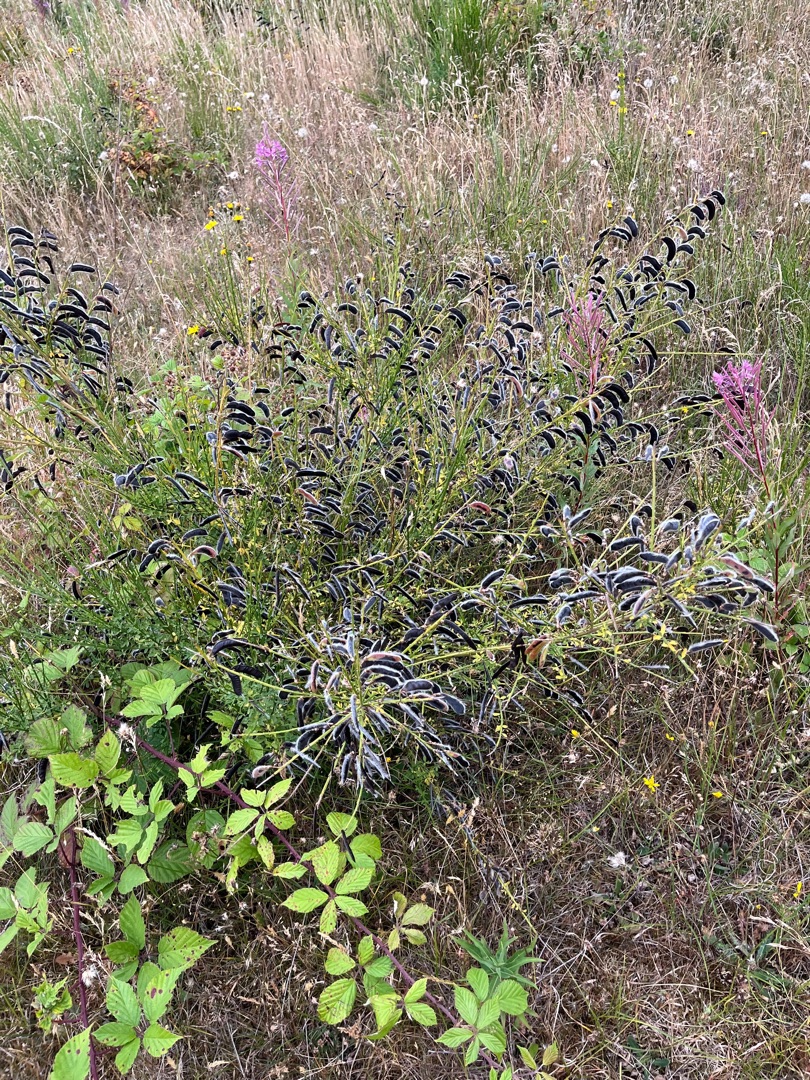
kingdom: Plantae
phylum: Tracheophyta
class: Magnoliopsida
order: Fabales
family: Fabaceae
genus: Cytisus
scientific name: Cytisus scoparius
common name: Almindelig gyvel (underart)
